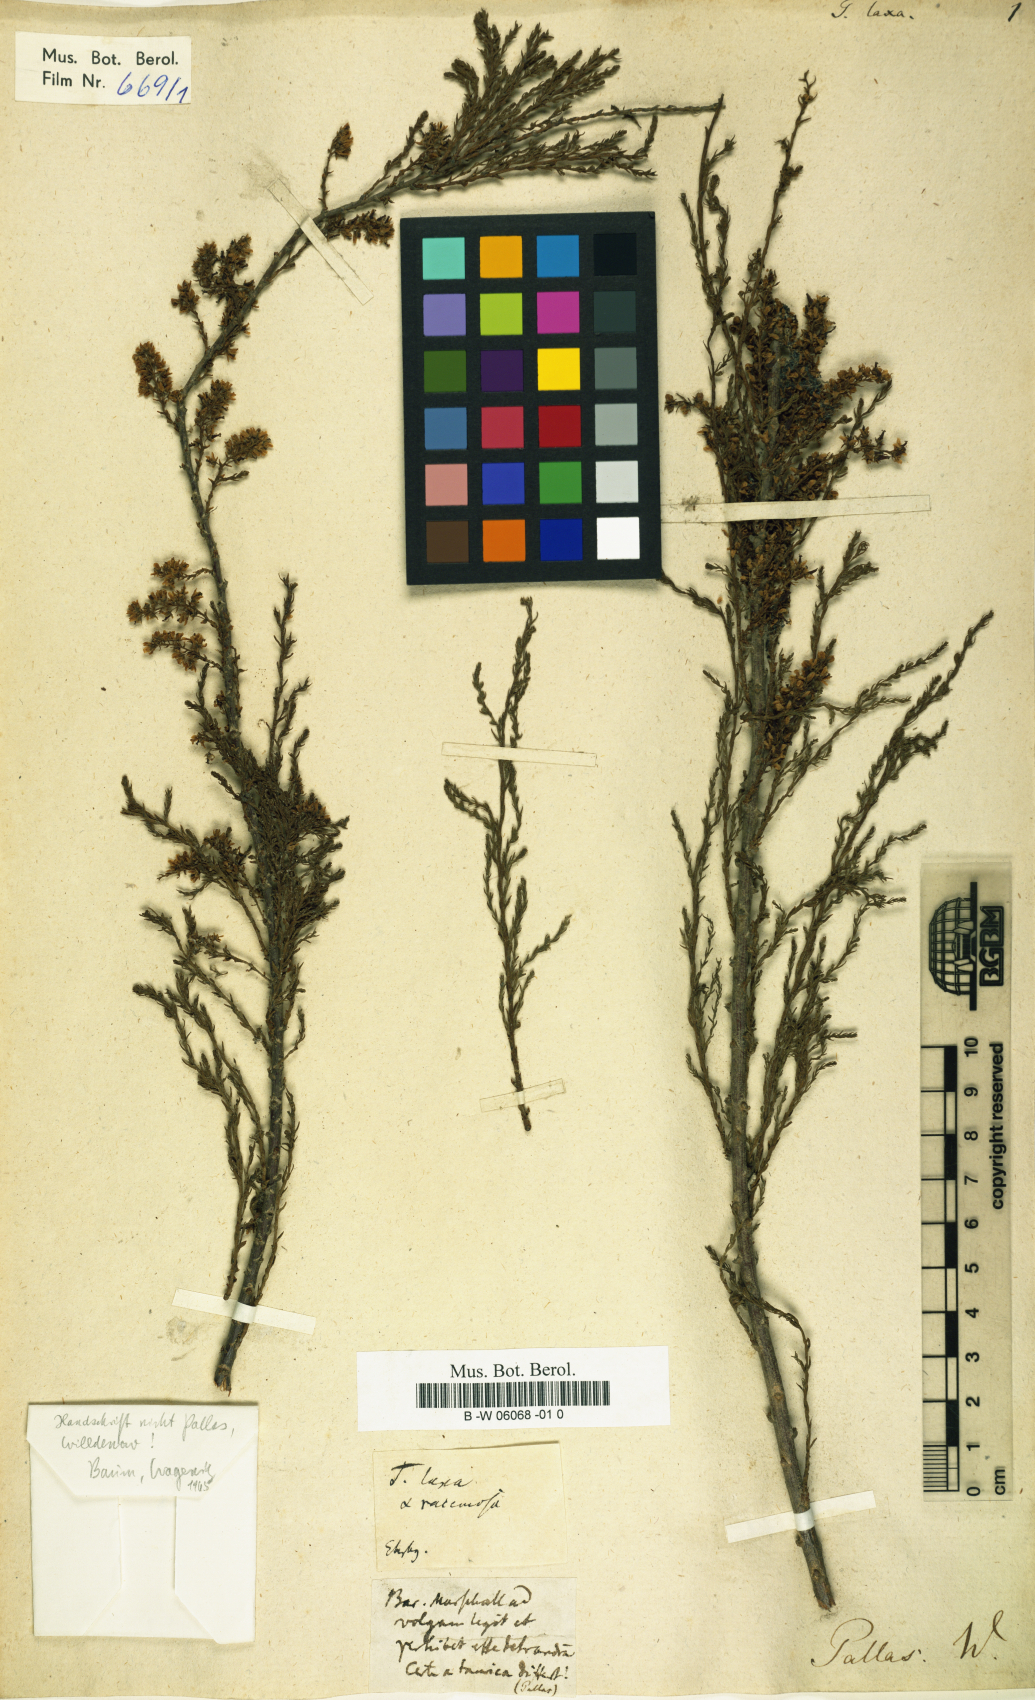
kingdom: Plantae
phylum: Tracheophyta
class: Magnoliopsida
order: Caryophyllales
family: Tamaricaceae
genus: Tamarix
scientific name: Tamarix laxa
